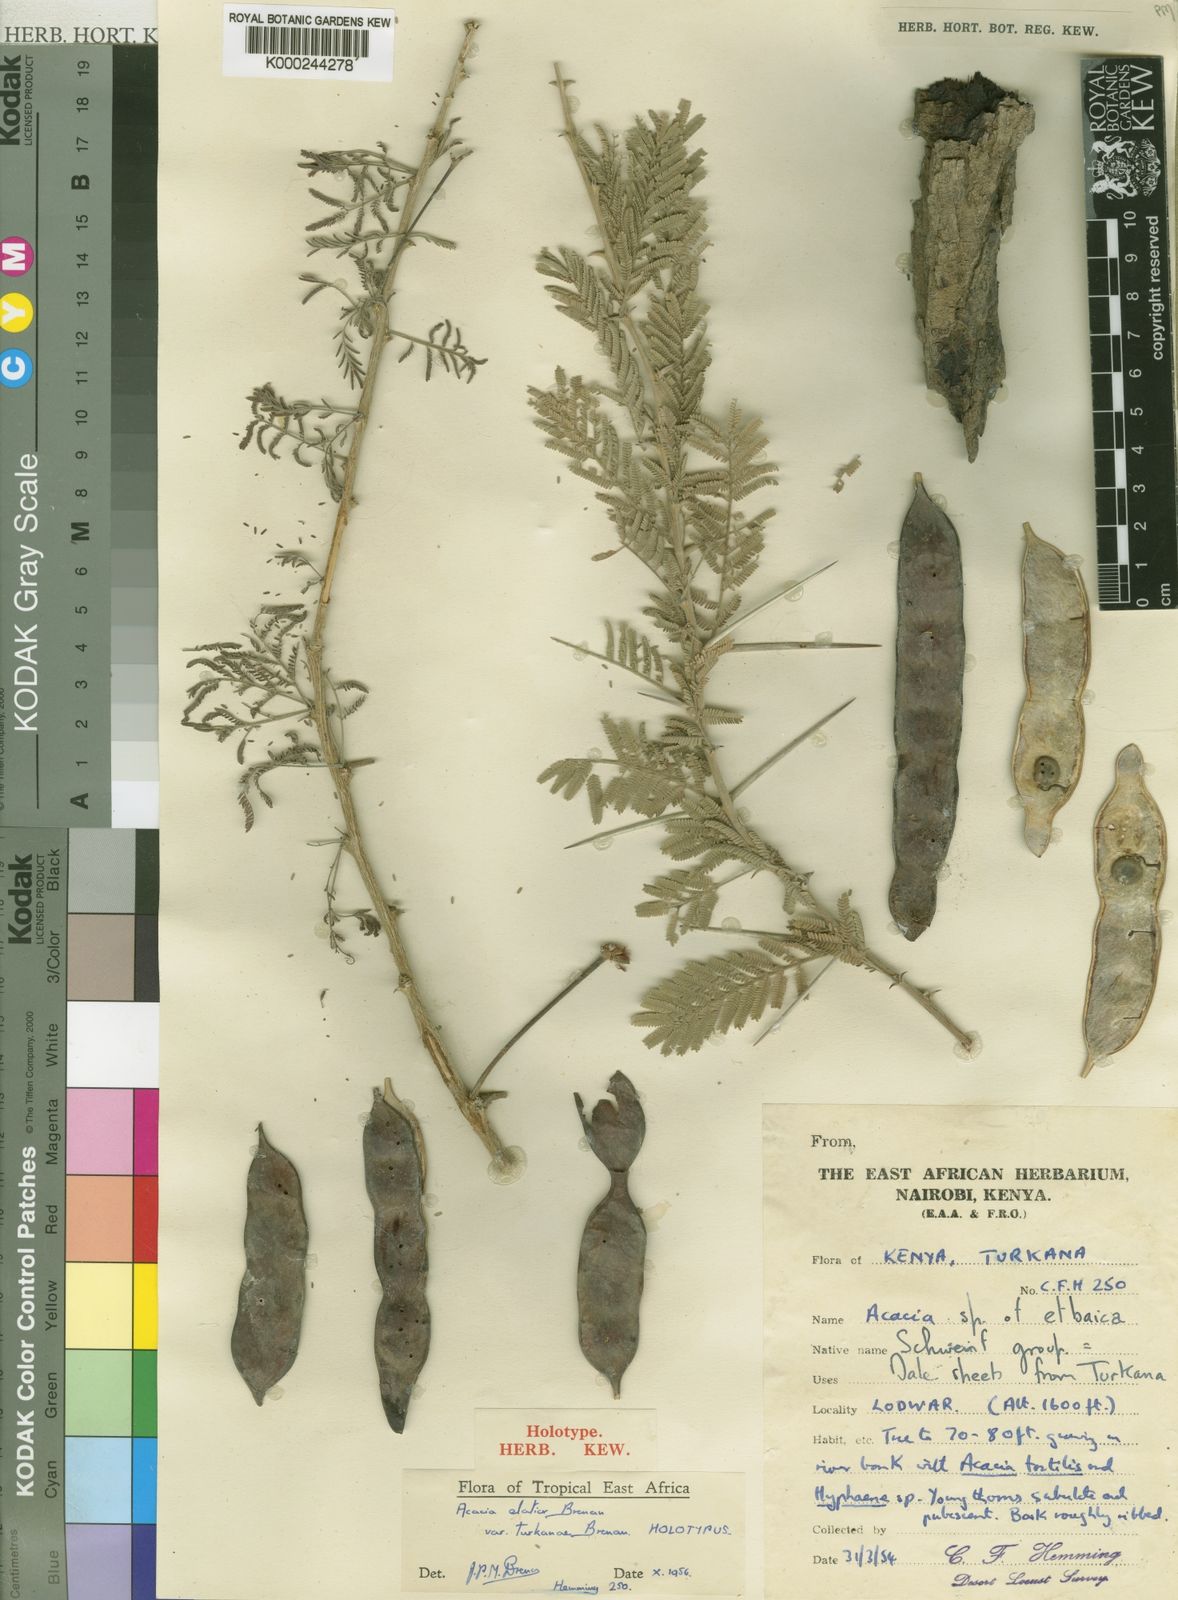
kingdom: Plantae
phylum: Tracheophyta
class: Magnoliopsida
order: Fabales
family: Fabaceae
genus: Vachellia
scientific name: Vachellia elatior
